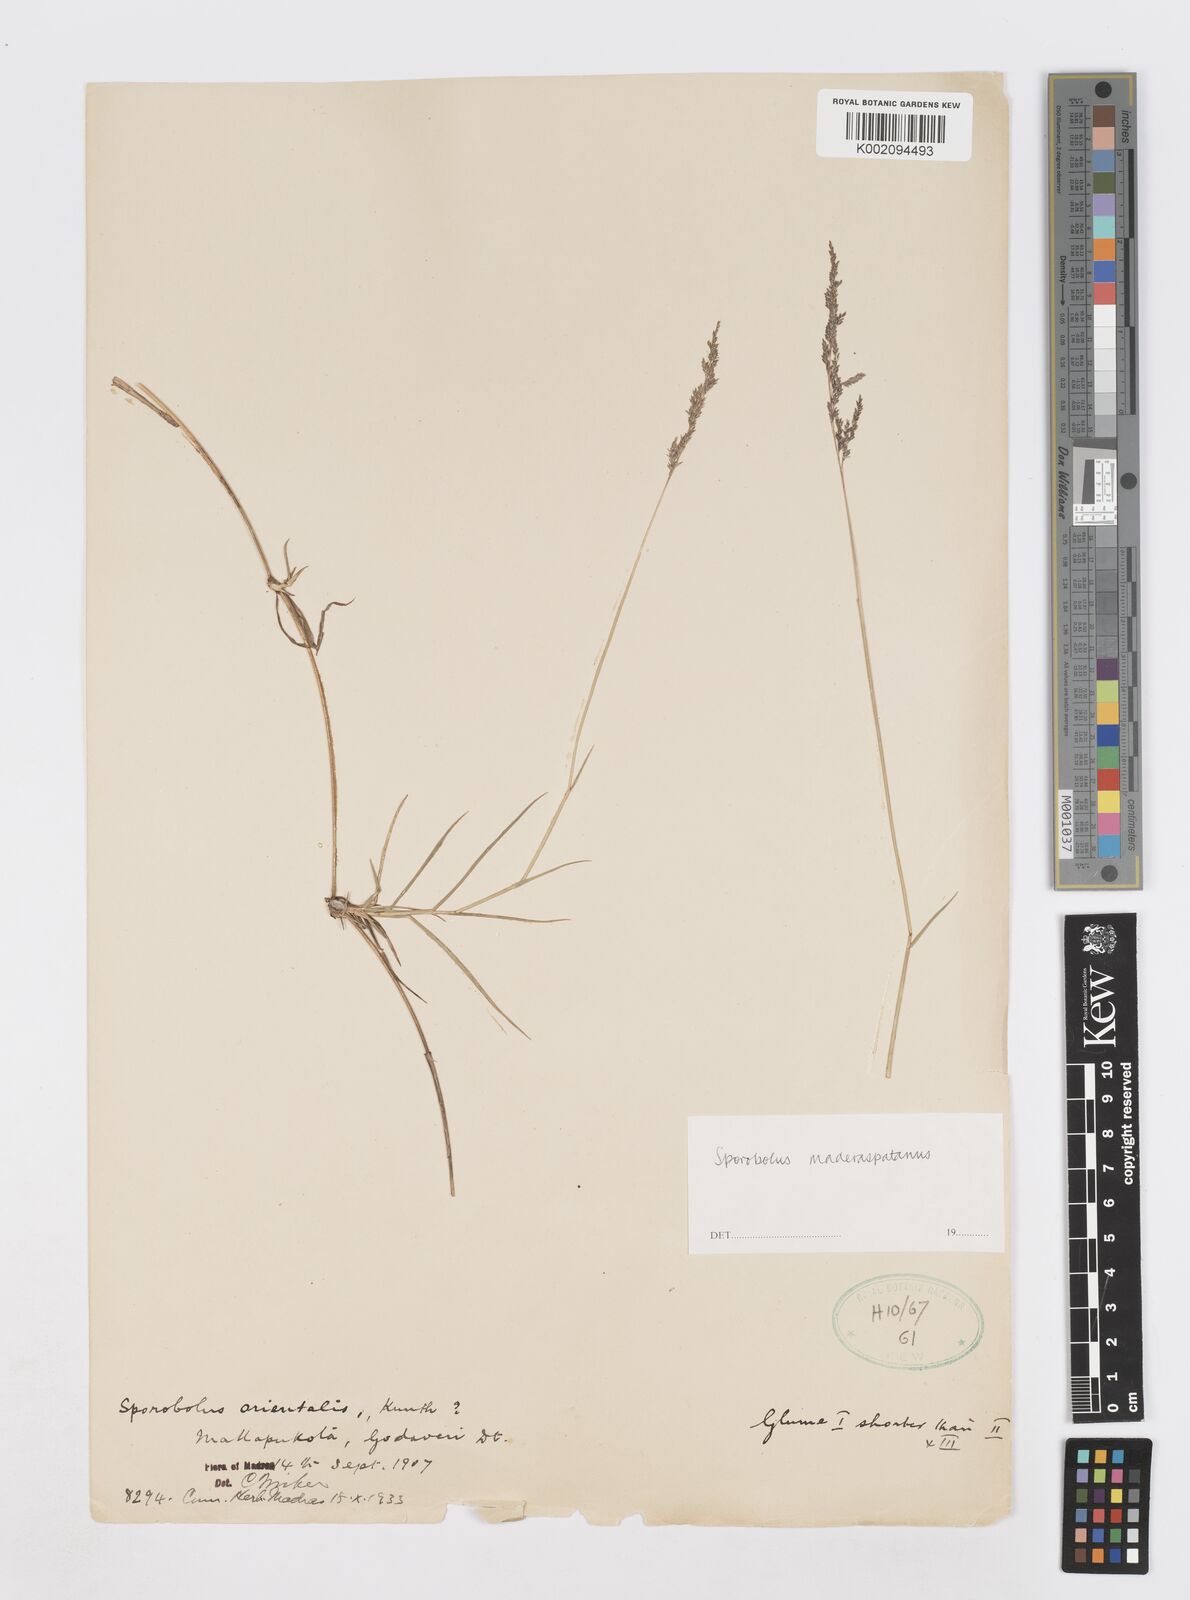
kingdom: Plantae
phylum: Tracheophyta
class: Liliopsida
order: Poales
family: Poaceae
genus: Sporobolus
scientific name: Sporobolus maderaspatanus
